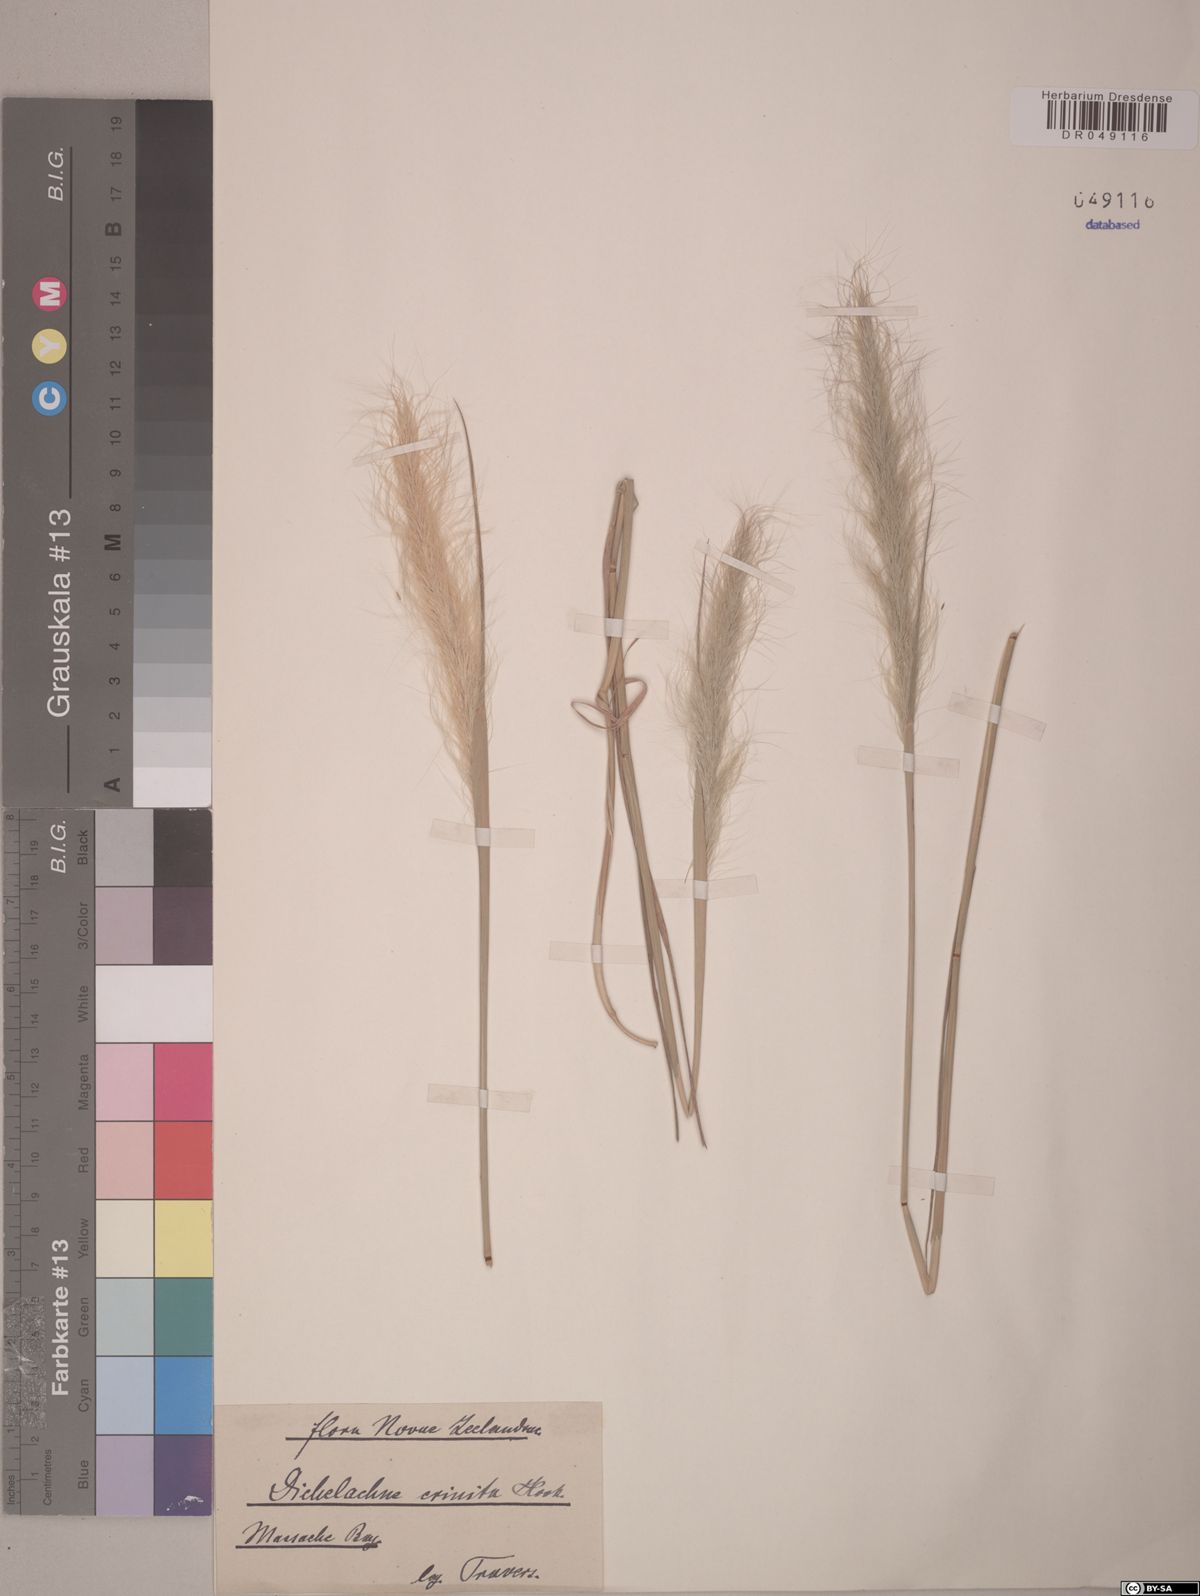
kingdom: Plantae
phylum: Tracheophyta
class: Liliopsida
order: Poales
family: Poaceae
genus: Dichelachne
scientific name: Dichelachne crinita
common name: Clovenfoot plumegrass
